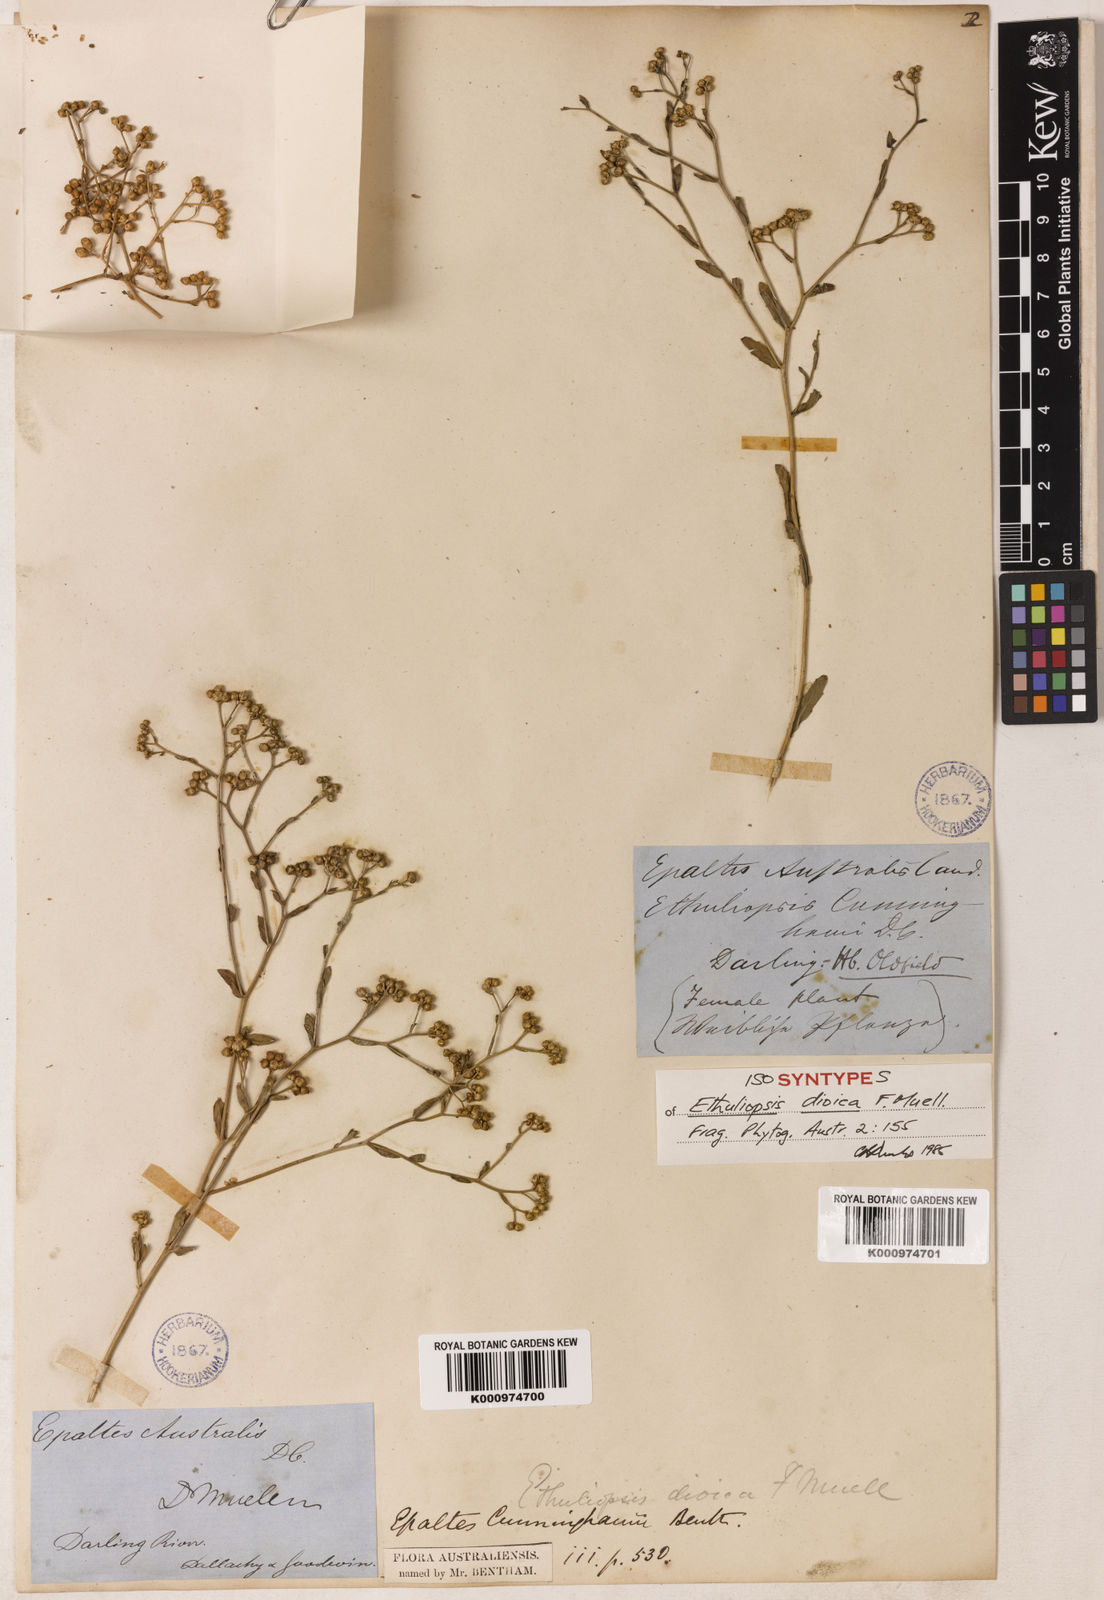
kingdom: Plantae
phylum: Tracheophyta
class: Magnoliopsida
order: Asterales
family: Asteraceae
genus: Epaltes
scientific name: Epaltes cunninghamii
